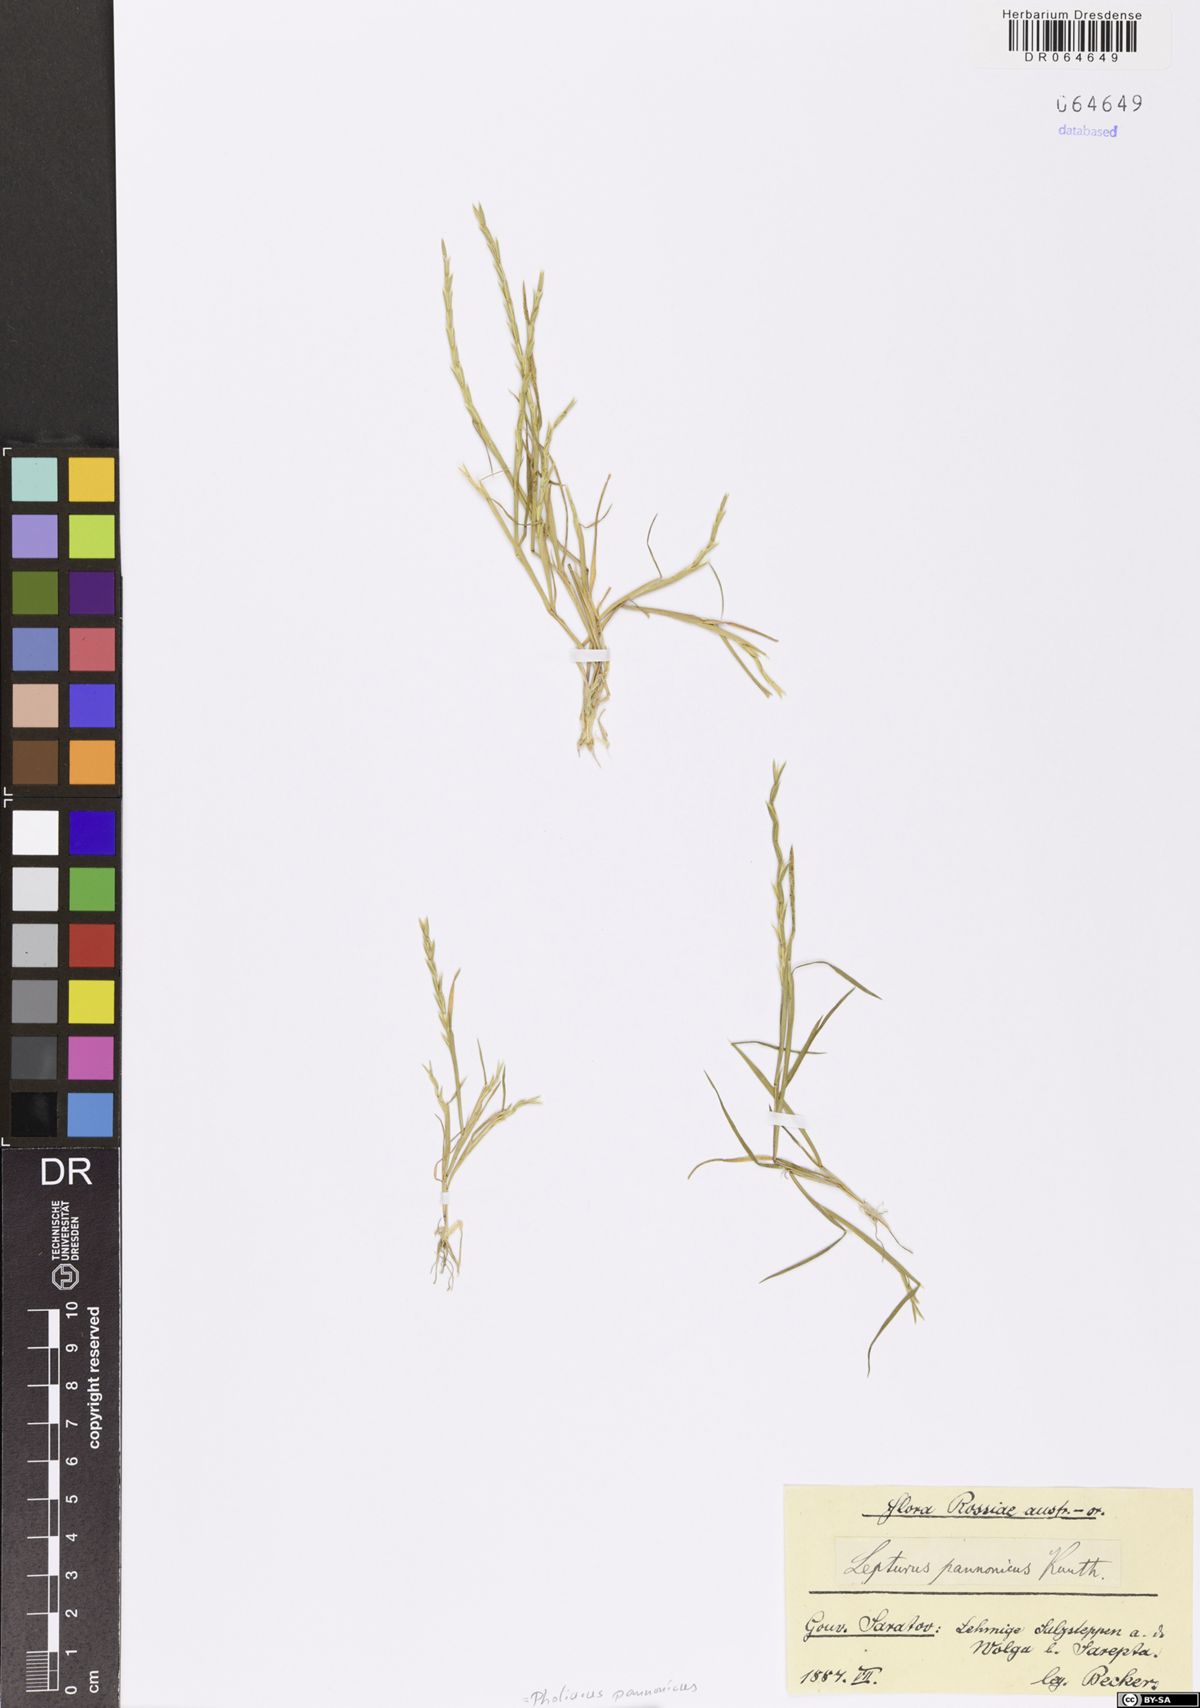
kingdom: Plantae
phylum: Tracheophyta
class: Liliopsida
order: Poales
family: Poaceae
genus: Pholiurus
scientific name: Pholiurus pannonicus
